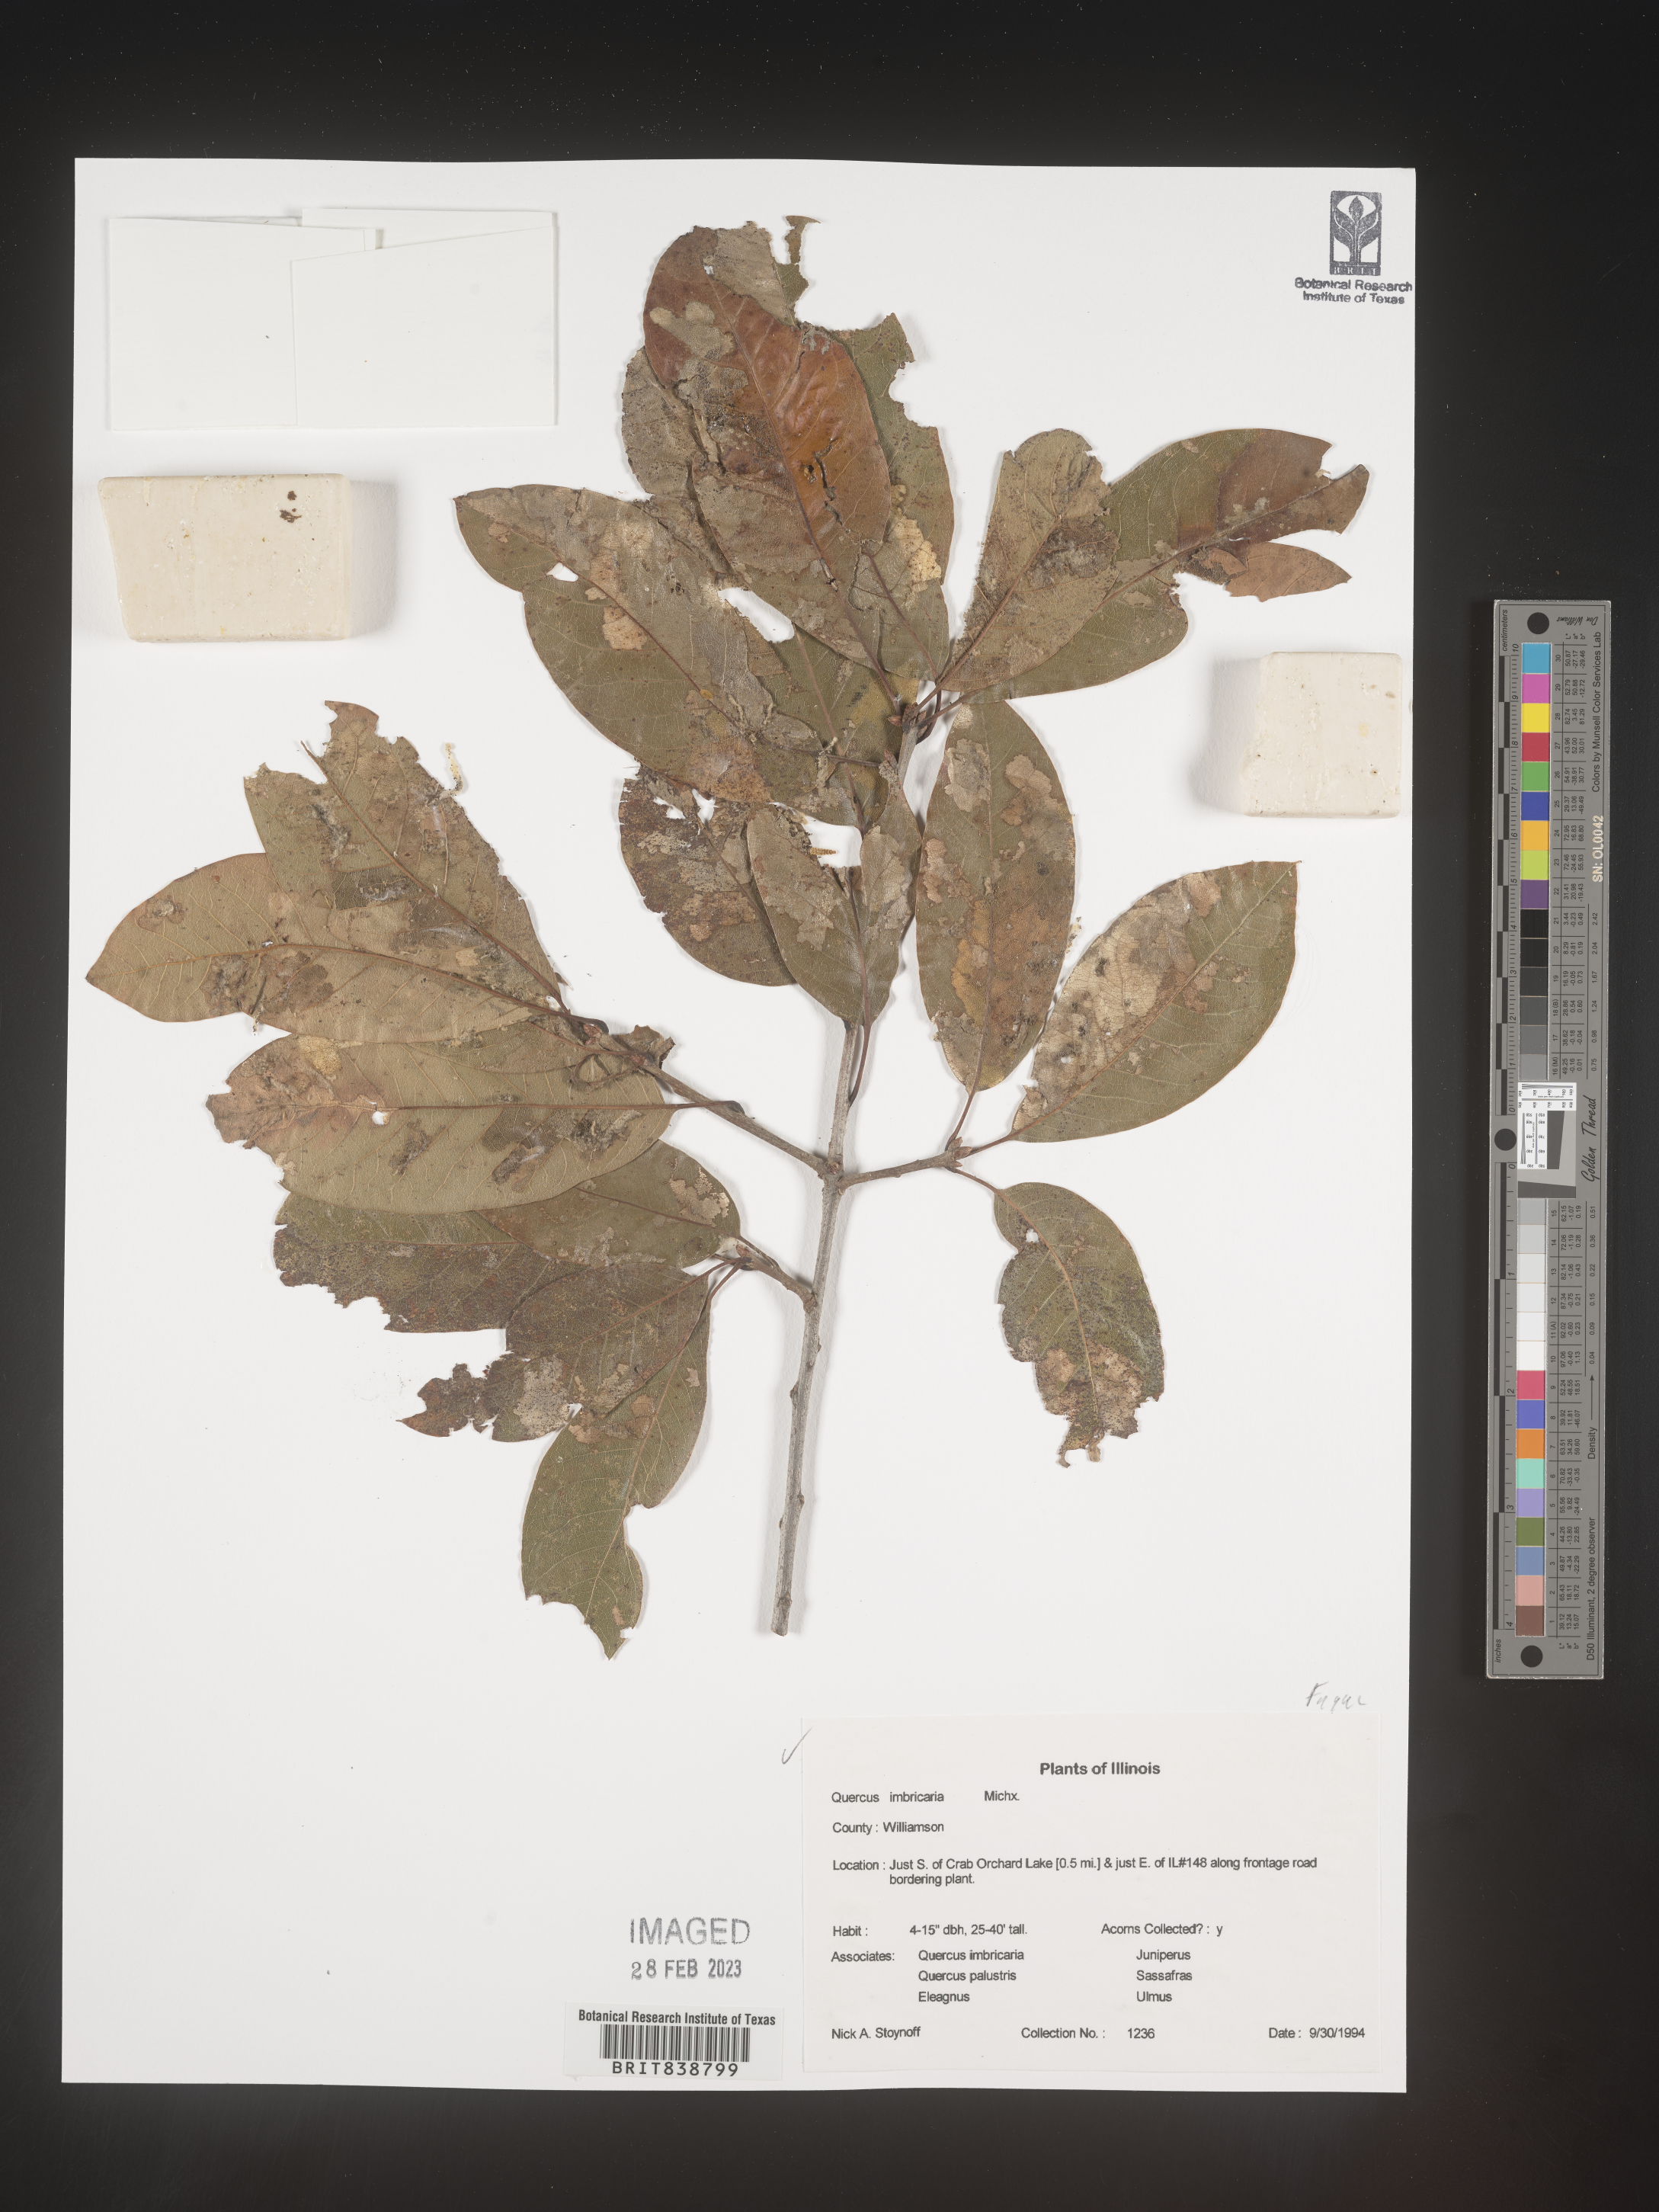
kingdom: Plantae
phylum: Tracheophyta
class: Magnoliopsida
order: Fagales
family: Fagaceae
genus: Quercus
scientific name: Quercus imbricaria
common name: Shingle oak
